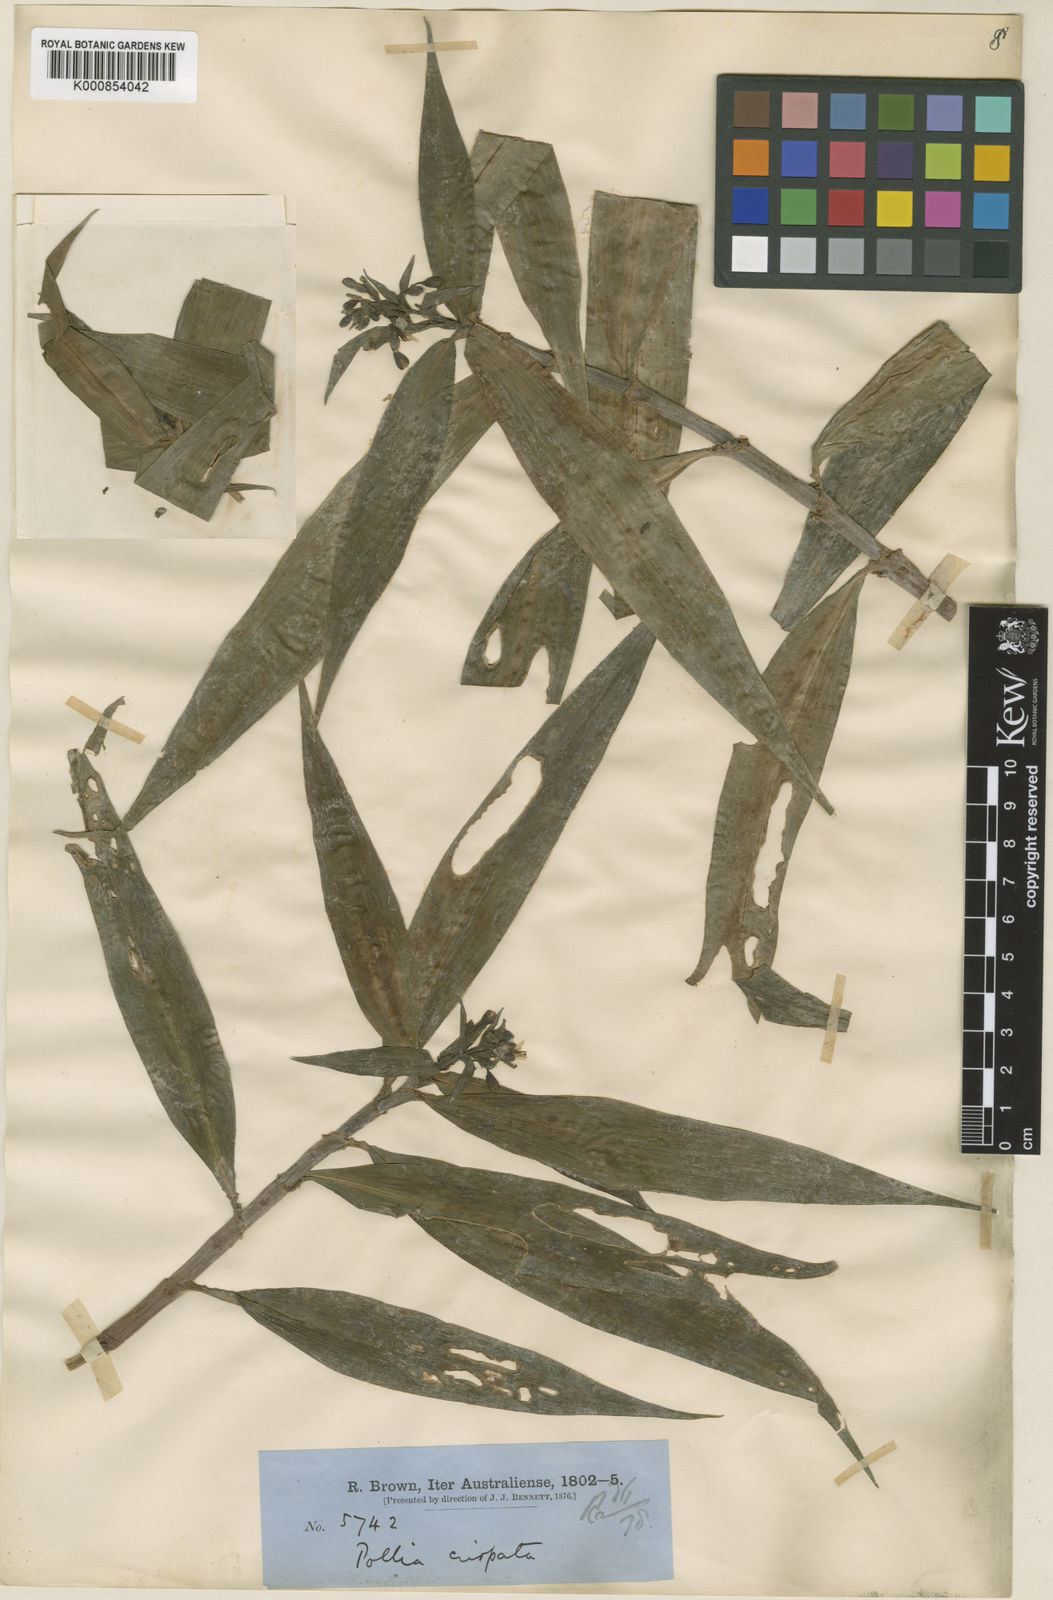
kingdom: Plantae
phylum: Tracheophyta
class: Liliopsida
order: Commelinales
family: Commelinaceae
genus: Pollia
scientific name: Pollia crispata
